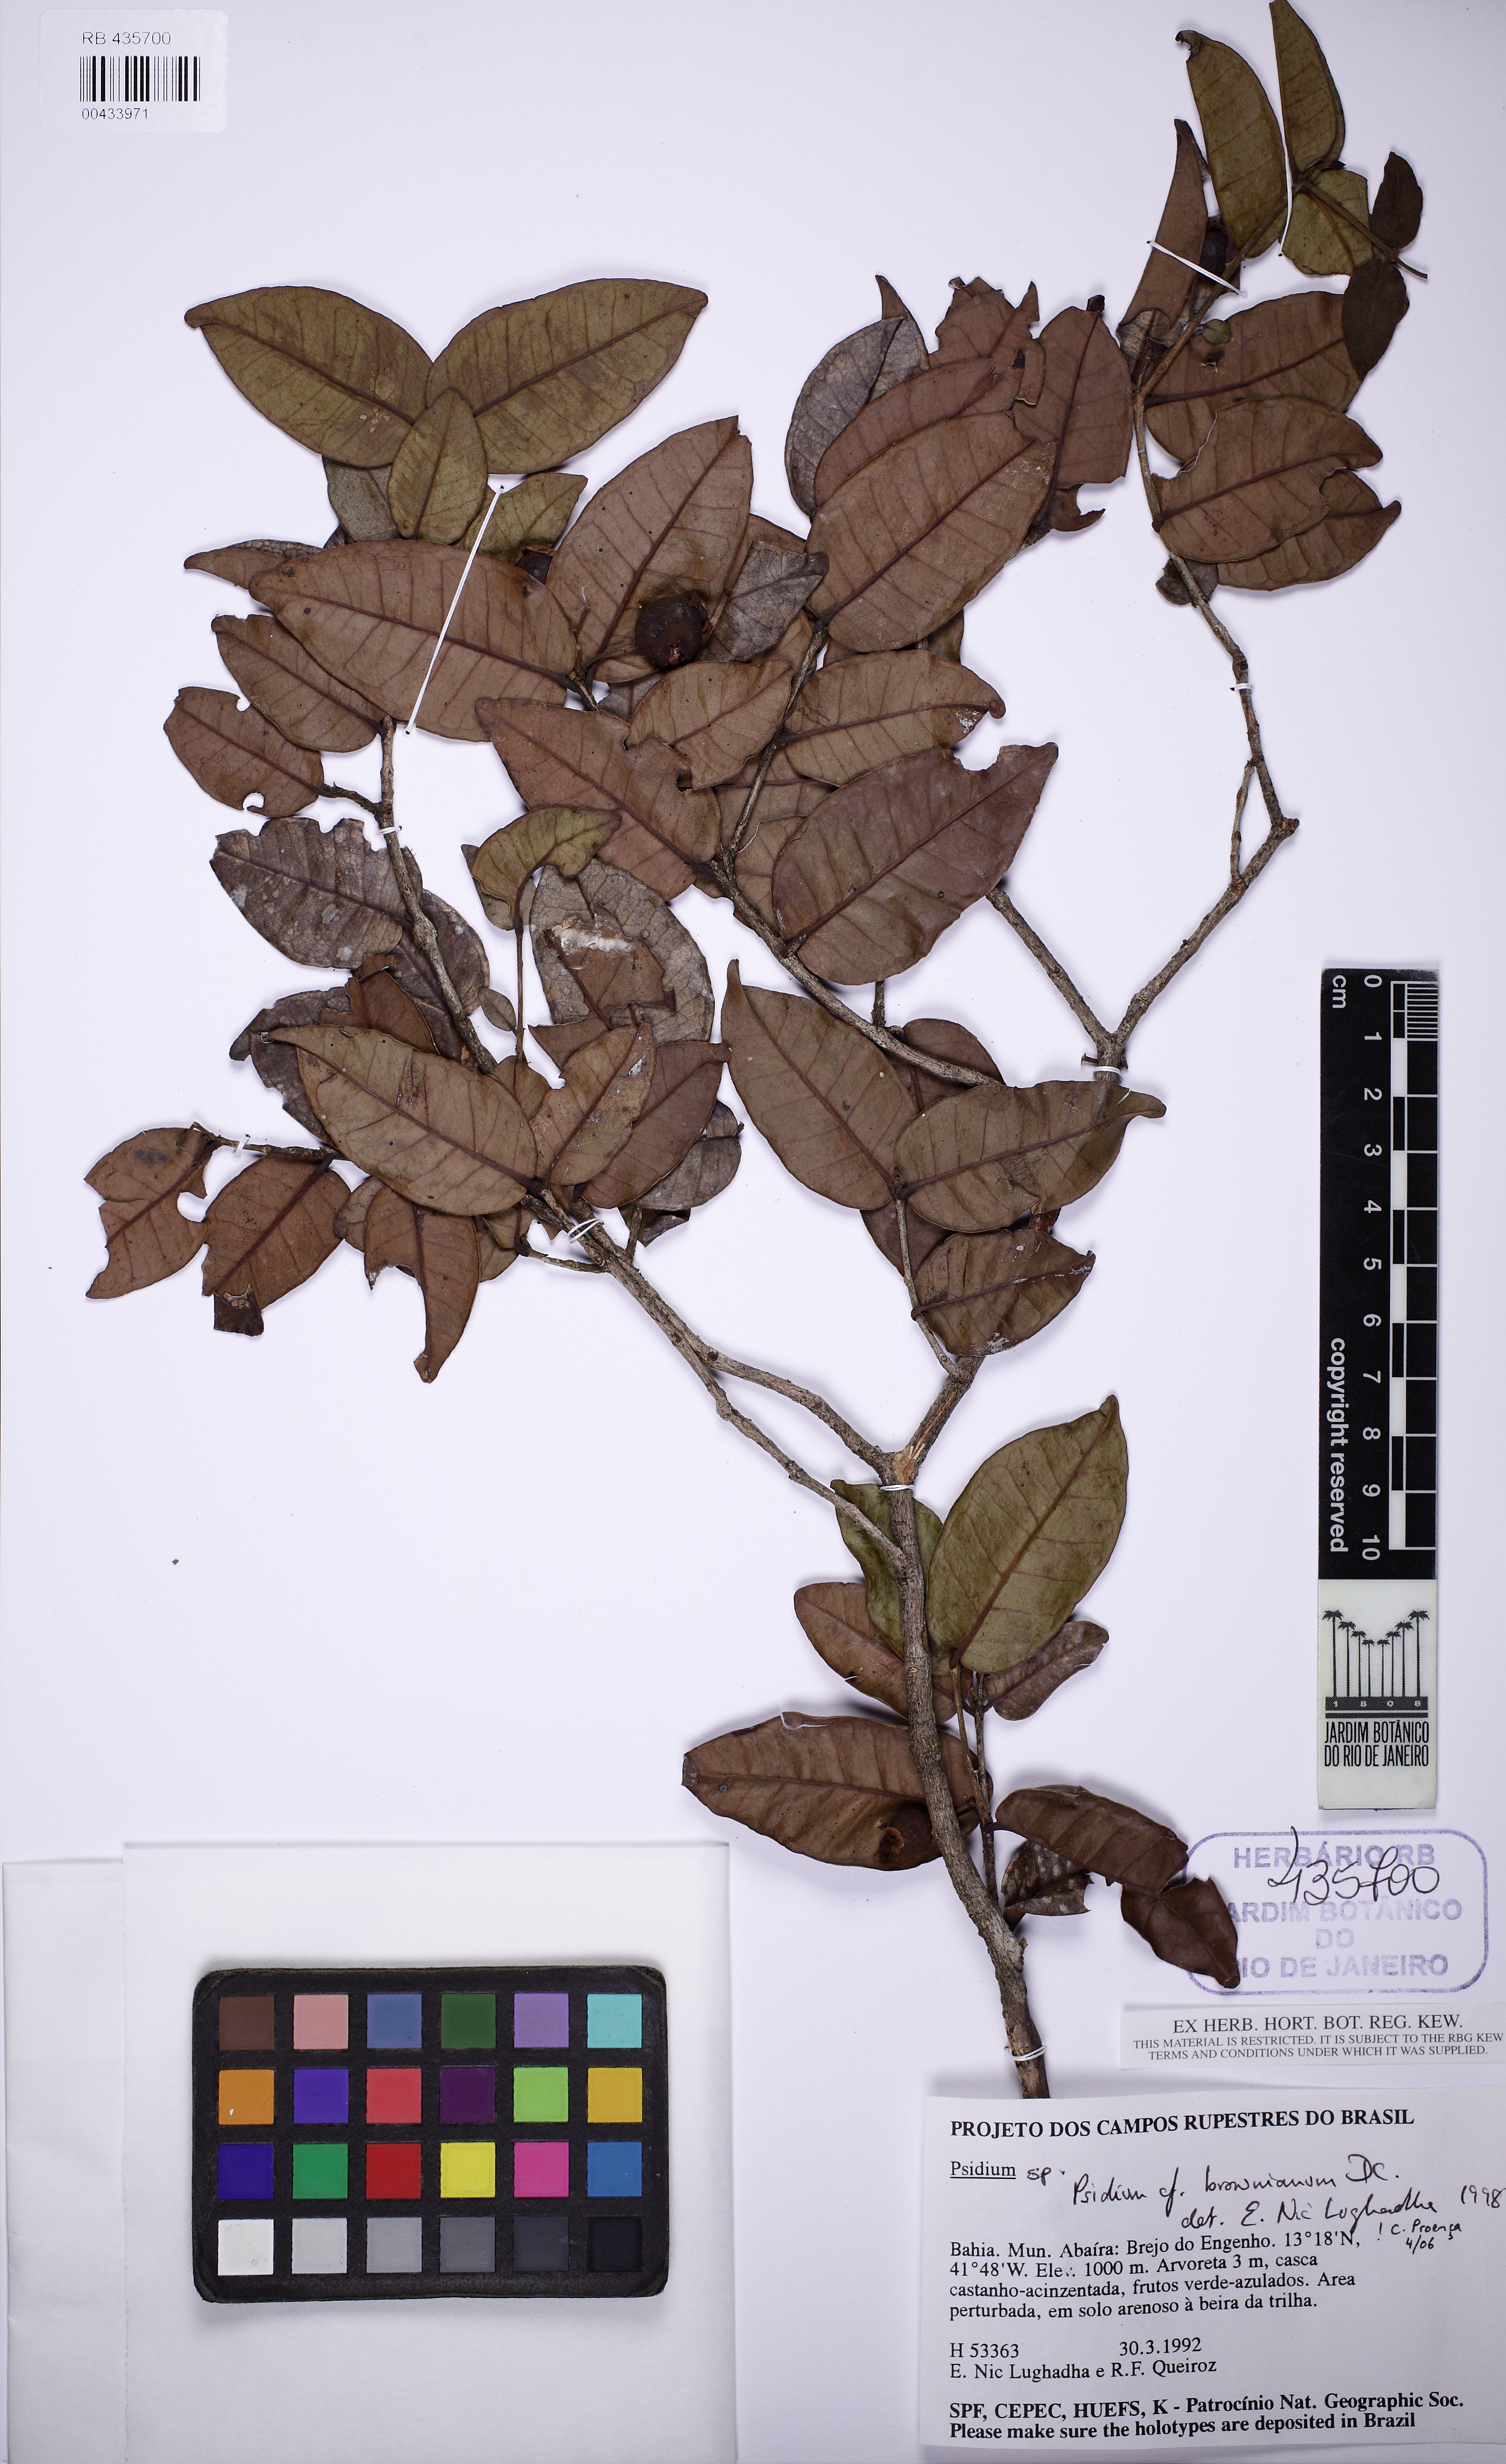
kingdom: Plantae
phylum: Tracheophyta
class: Magnoliopsida
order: Myrtales
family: Myrtaceae
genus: Psidium
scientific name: Psidium brownianum
